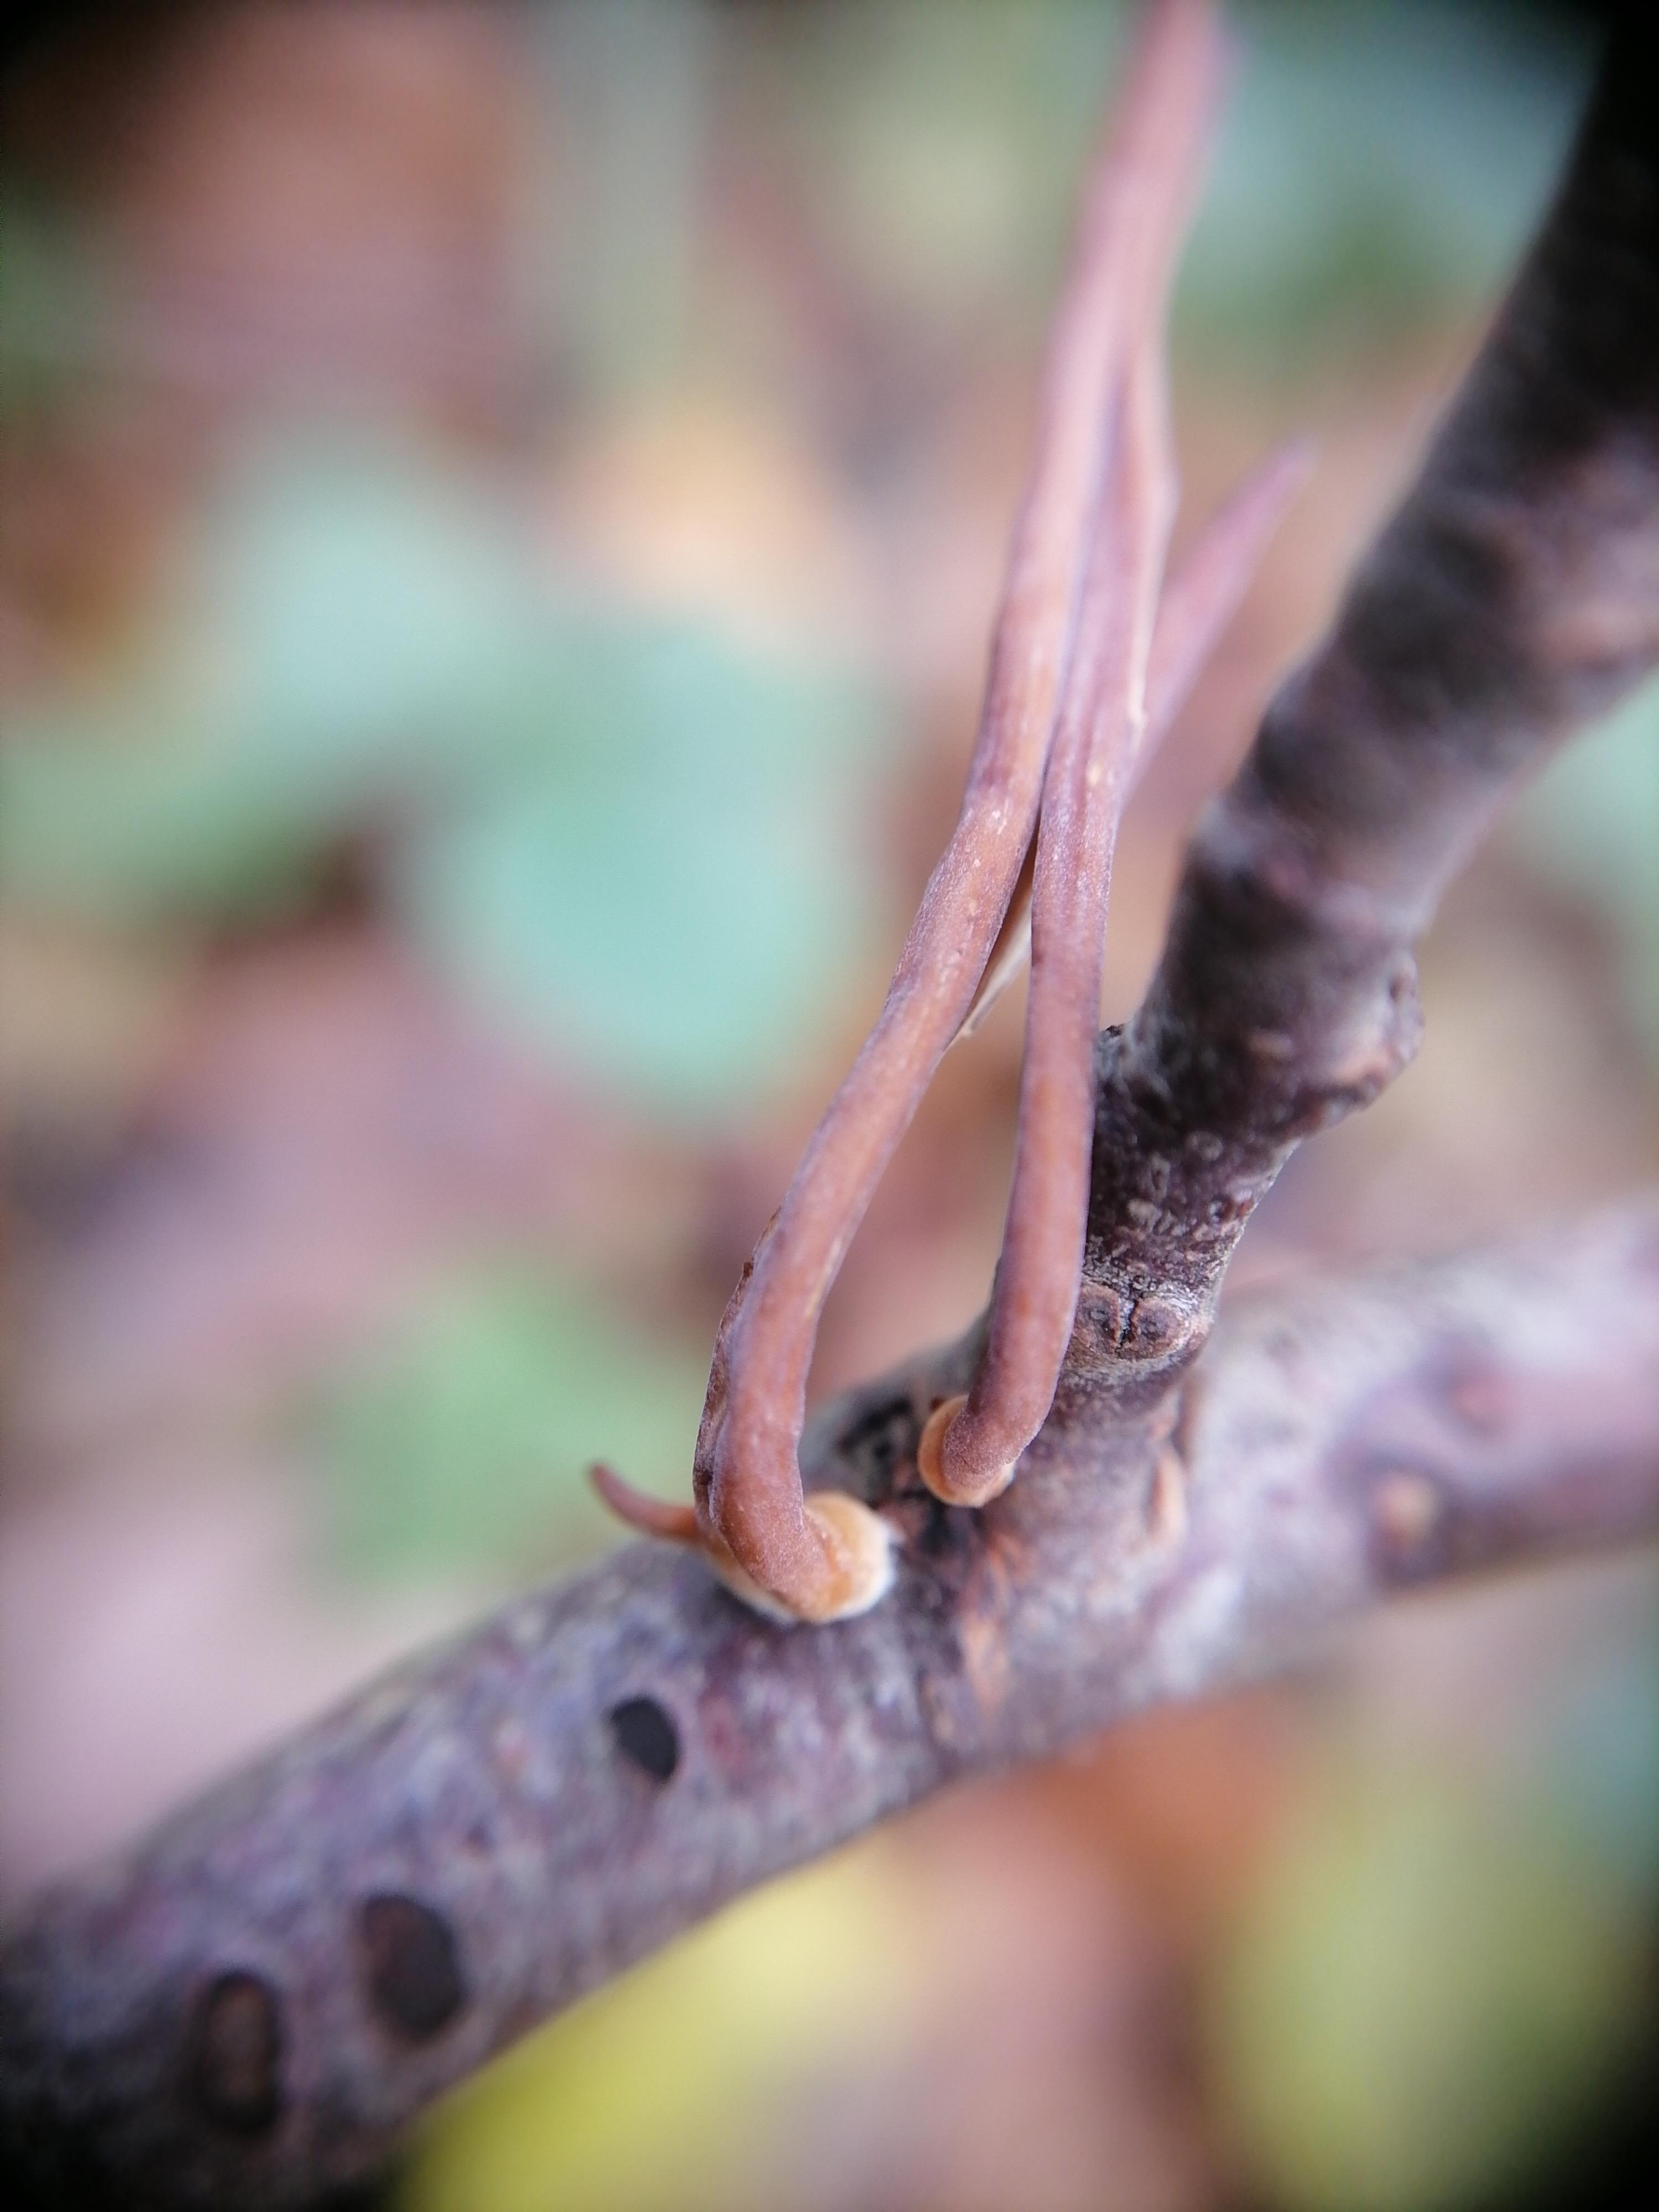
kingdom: Fungi
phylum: Basidiomycota
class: Agaricomycetes
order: Agaricales
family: Typhulaceae
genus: Typhula
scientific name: Typhula fistulosa
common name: pibet rørkølle
